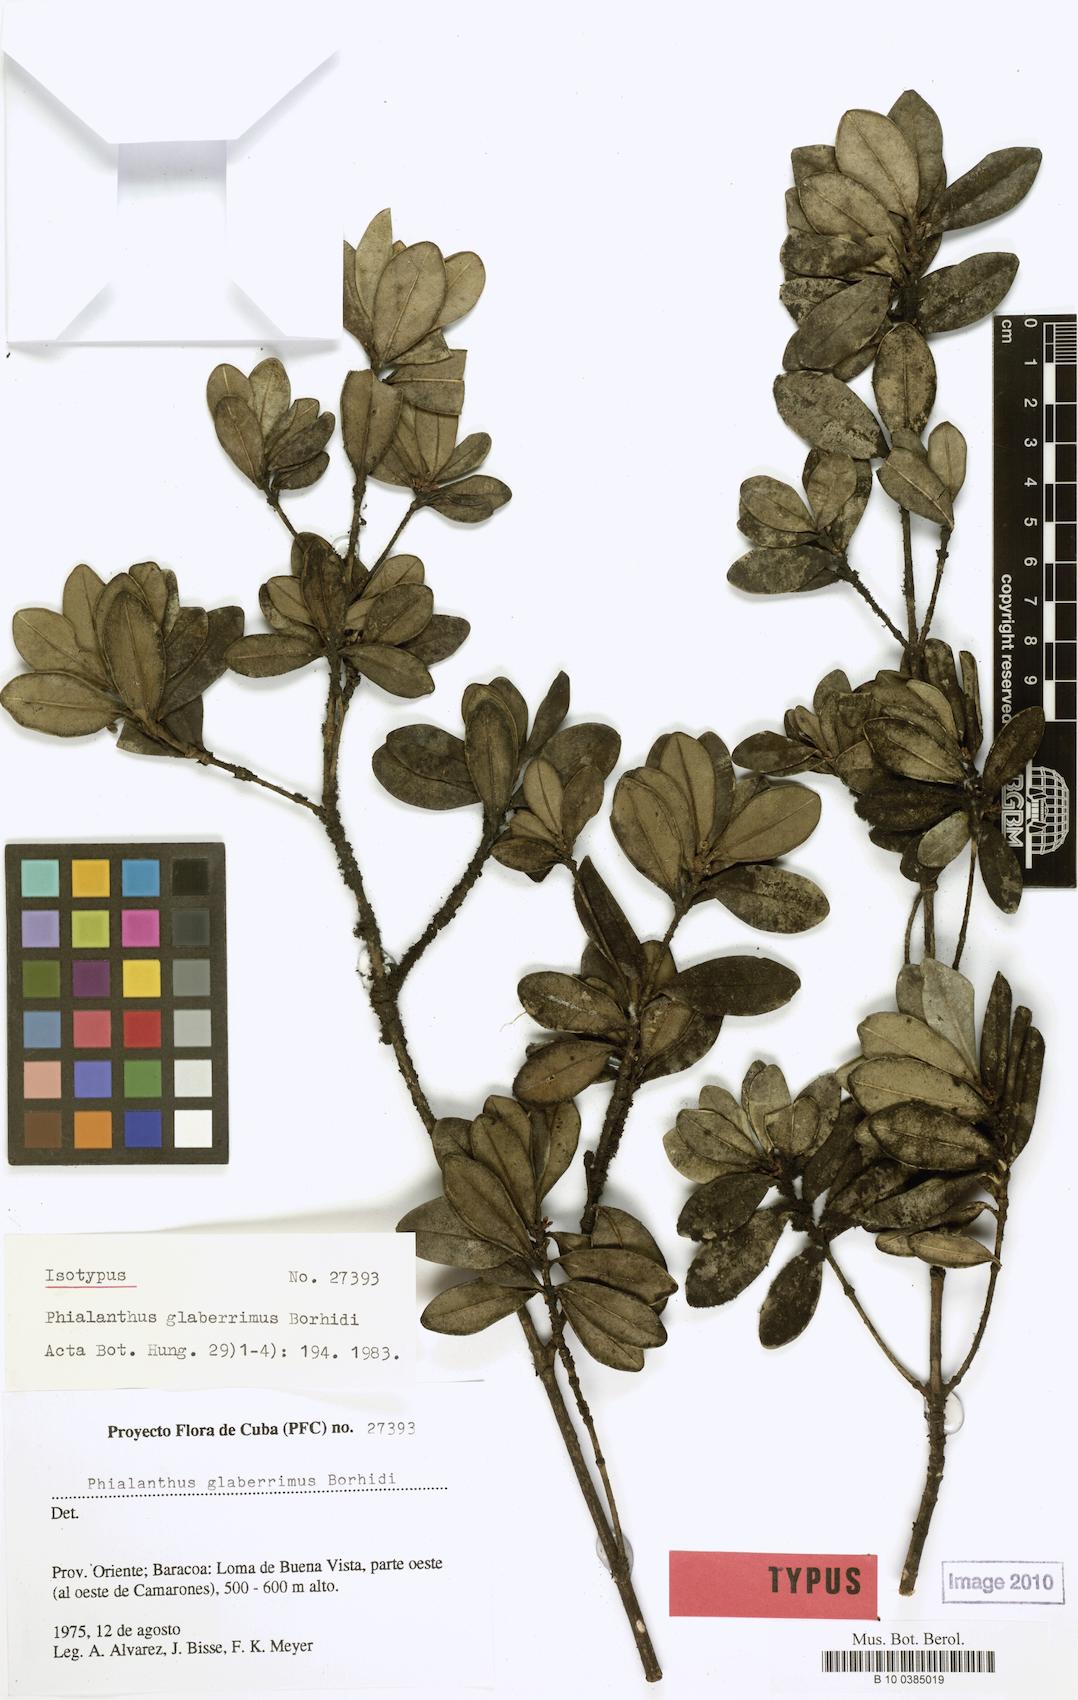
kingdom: Plantae
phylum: Tracheophyta
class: Magnoliopsida
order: Gentianales
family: Rubiaceae
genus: Phialanthus
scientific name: Phialanthus glaberrimus
